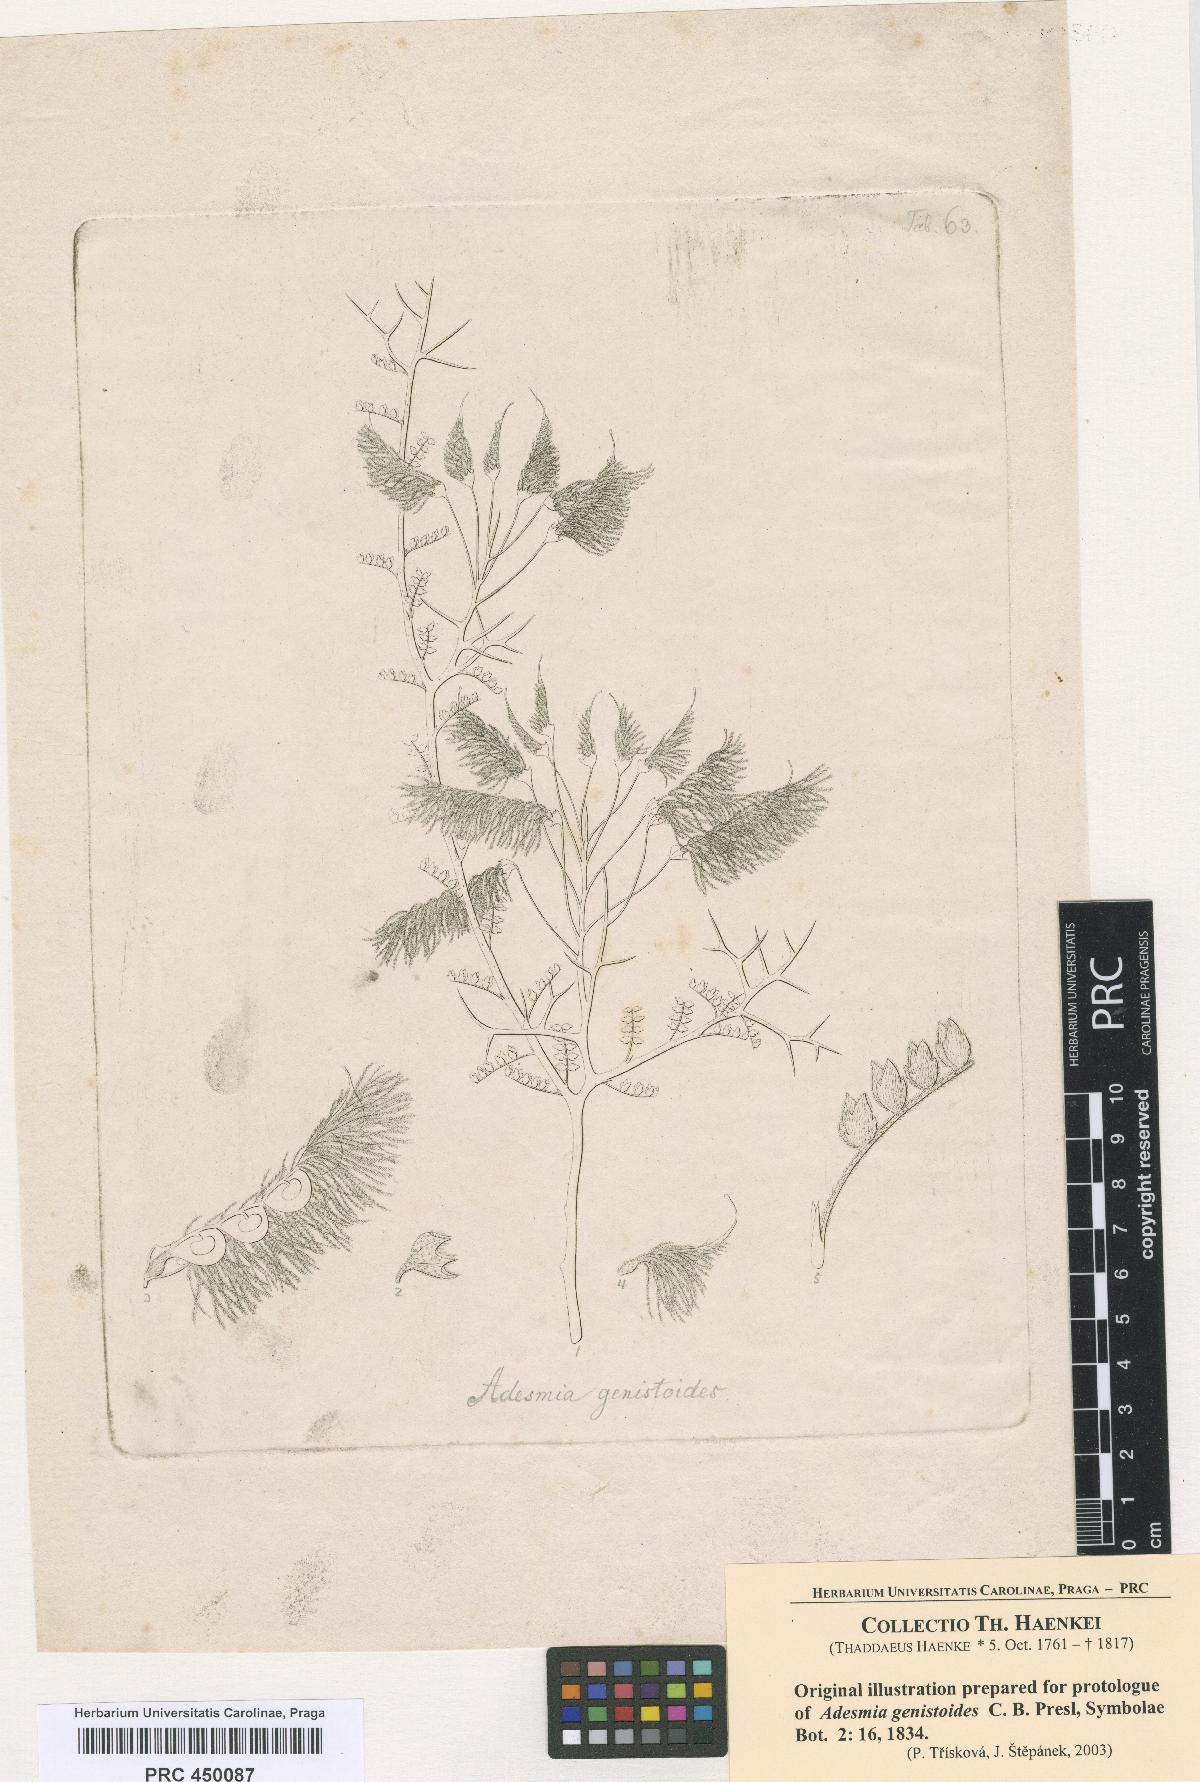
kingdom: Plantae
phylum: Tracheophyta
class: Magnoliopsida
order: Fabales
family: Fabaceae
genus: Adesmia
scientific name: Adesmia pedicellata
